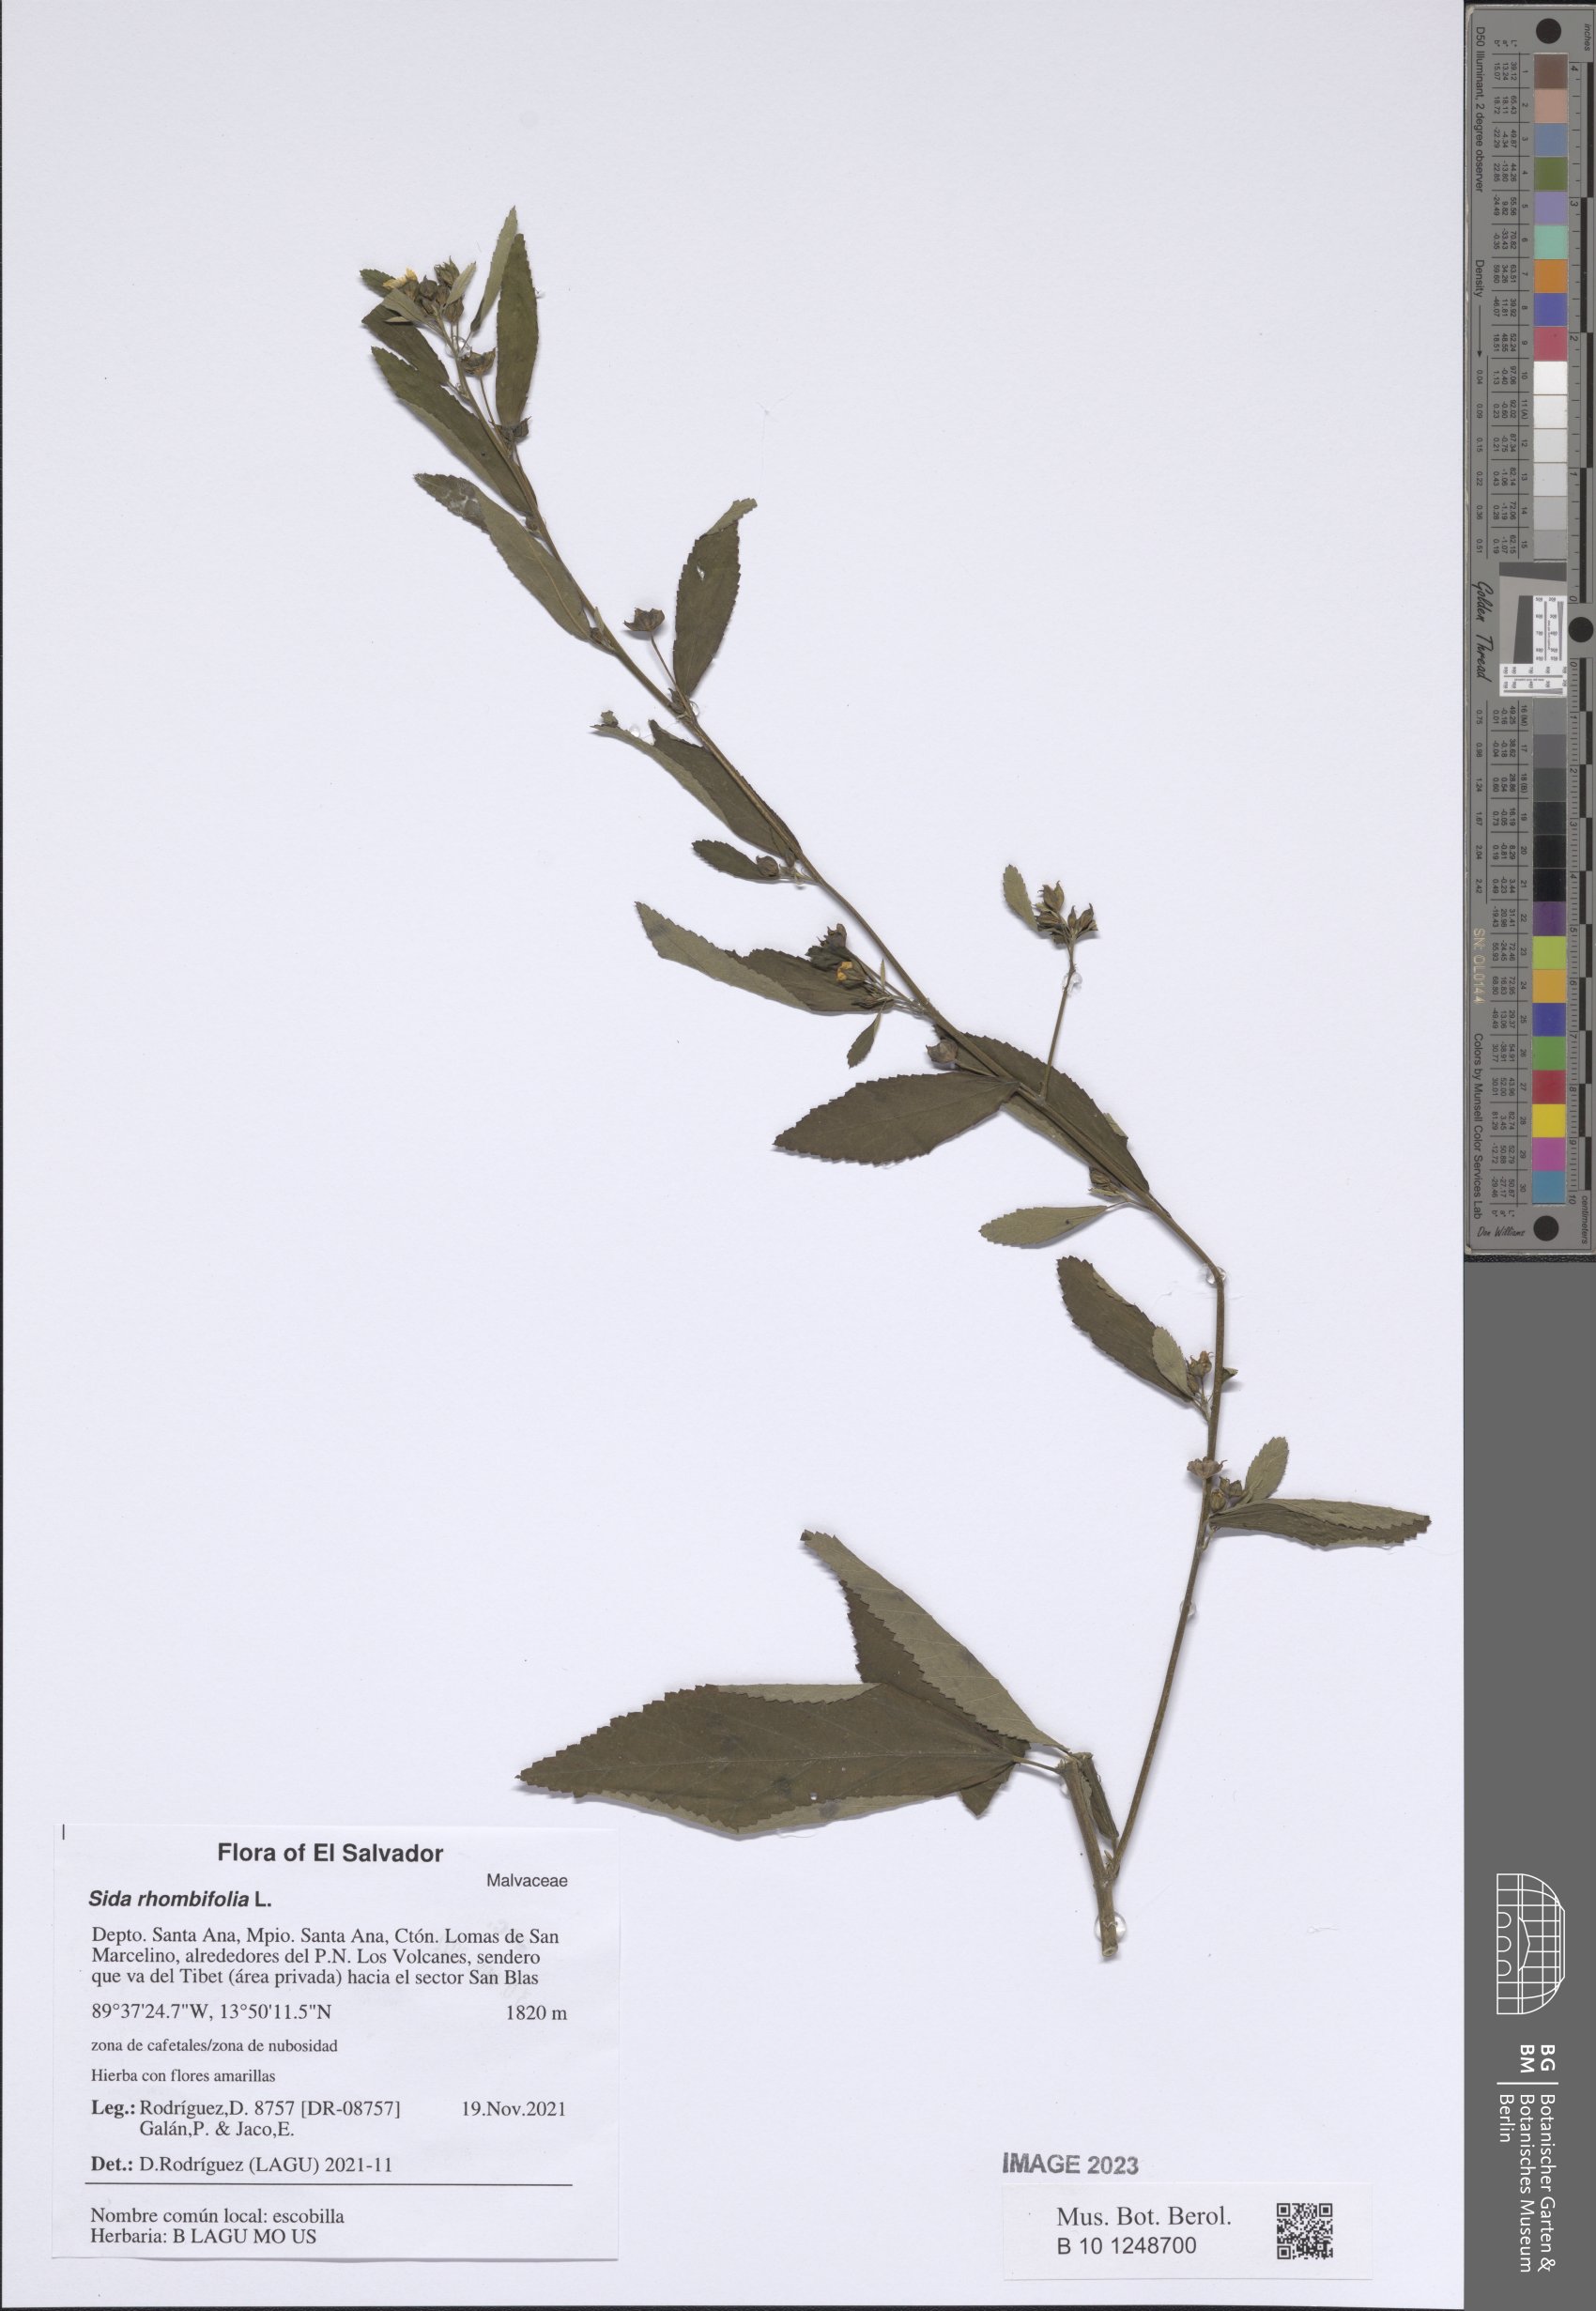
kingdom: Plantae
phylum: Tracheophyta
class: Magnoliopsida
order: Malvales
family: Malvaceae
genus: Sida
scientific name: Sida rhombifolia
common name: Queensland-hemp
